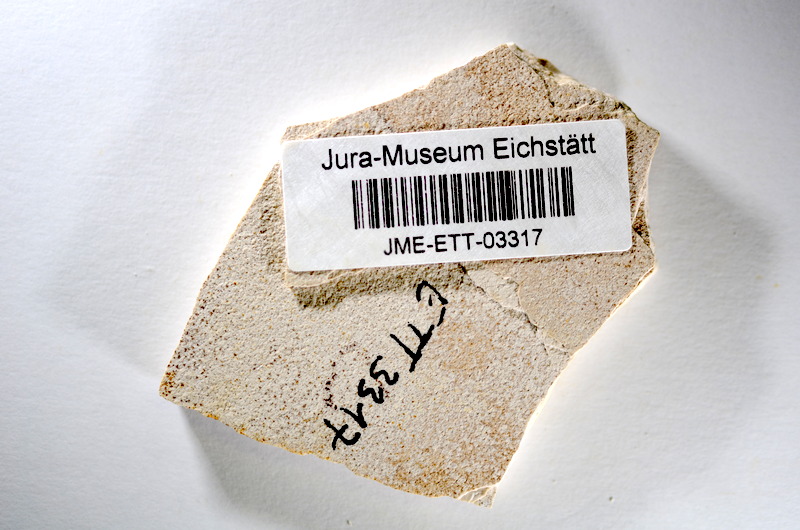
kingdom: Animalia
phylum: Chordata
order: Salmoniformes
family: Orthogonikleithridae
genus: Orthogonikleithrus
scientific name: Orthogonikleithrus hoelli
